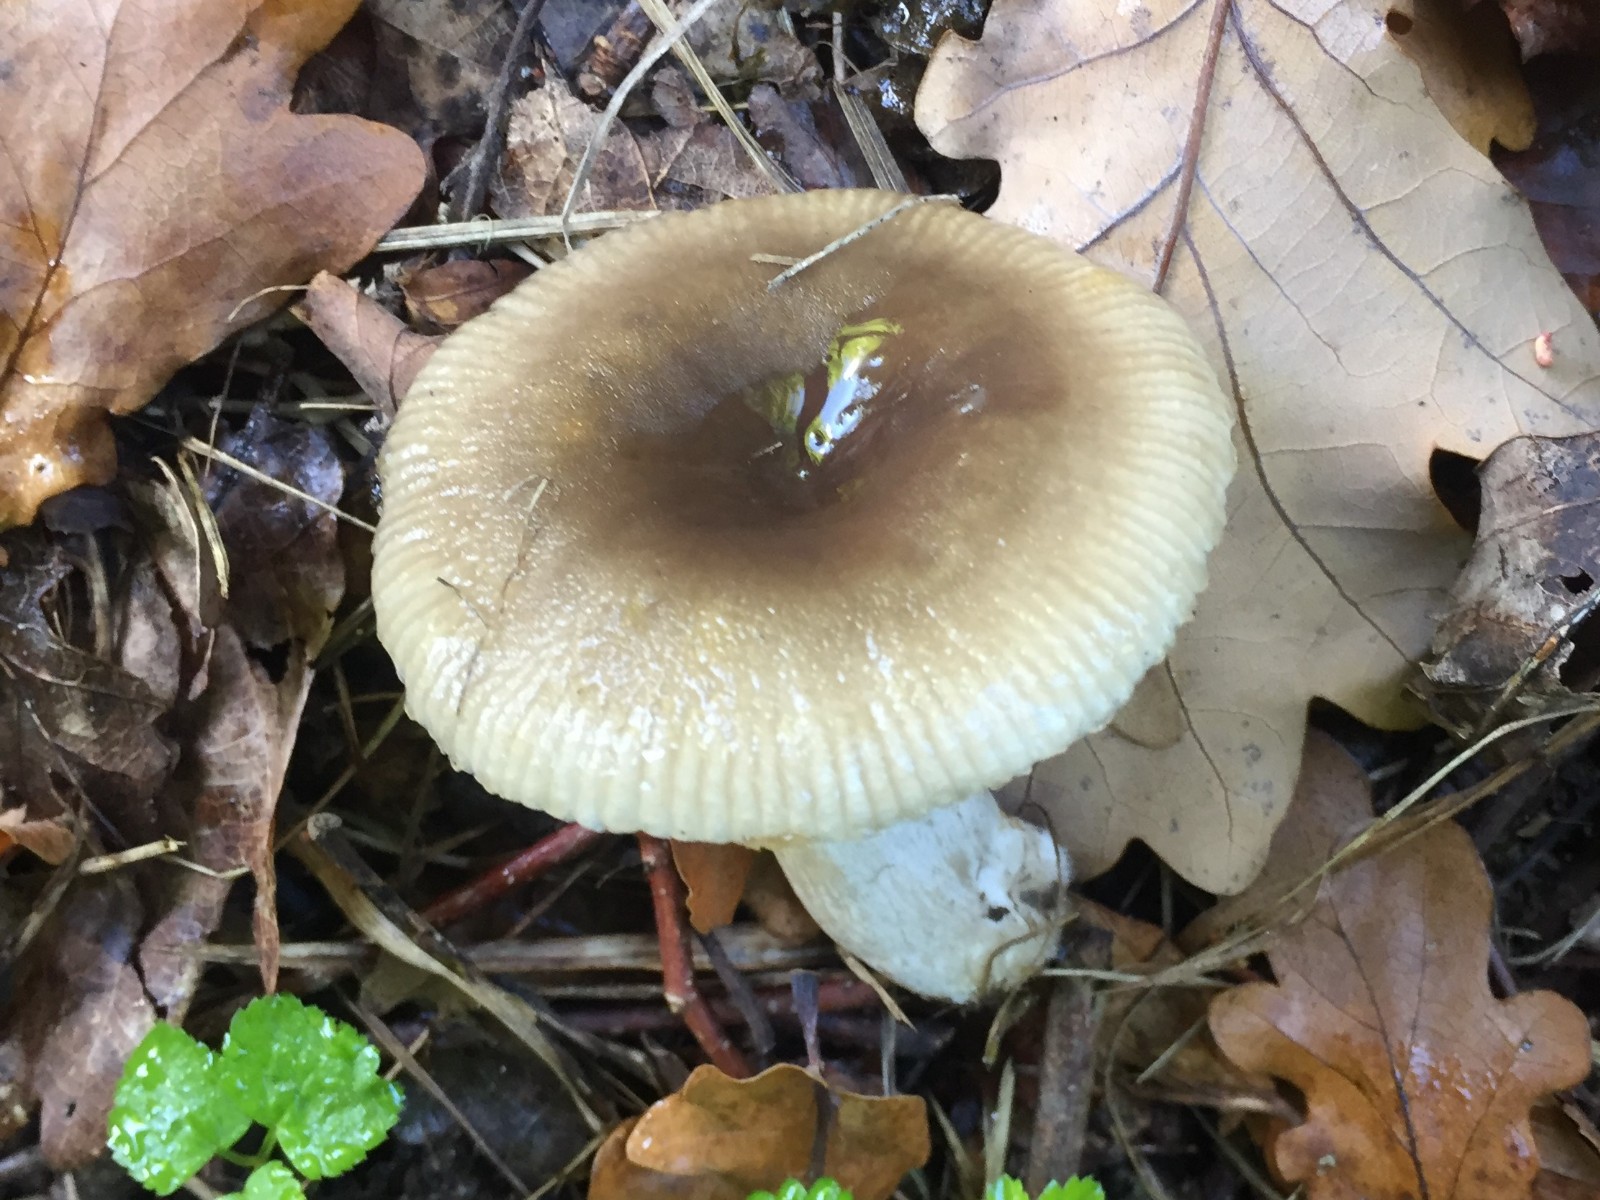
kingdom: Fungi
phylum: Basidiomycota
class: Agaricomycetes
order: Russulales
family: Russulaceae
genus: Russula
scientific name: Russula amoenolens
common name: skarp kam-skørhat
